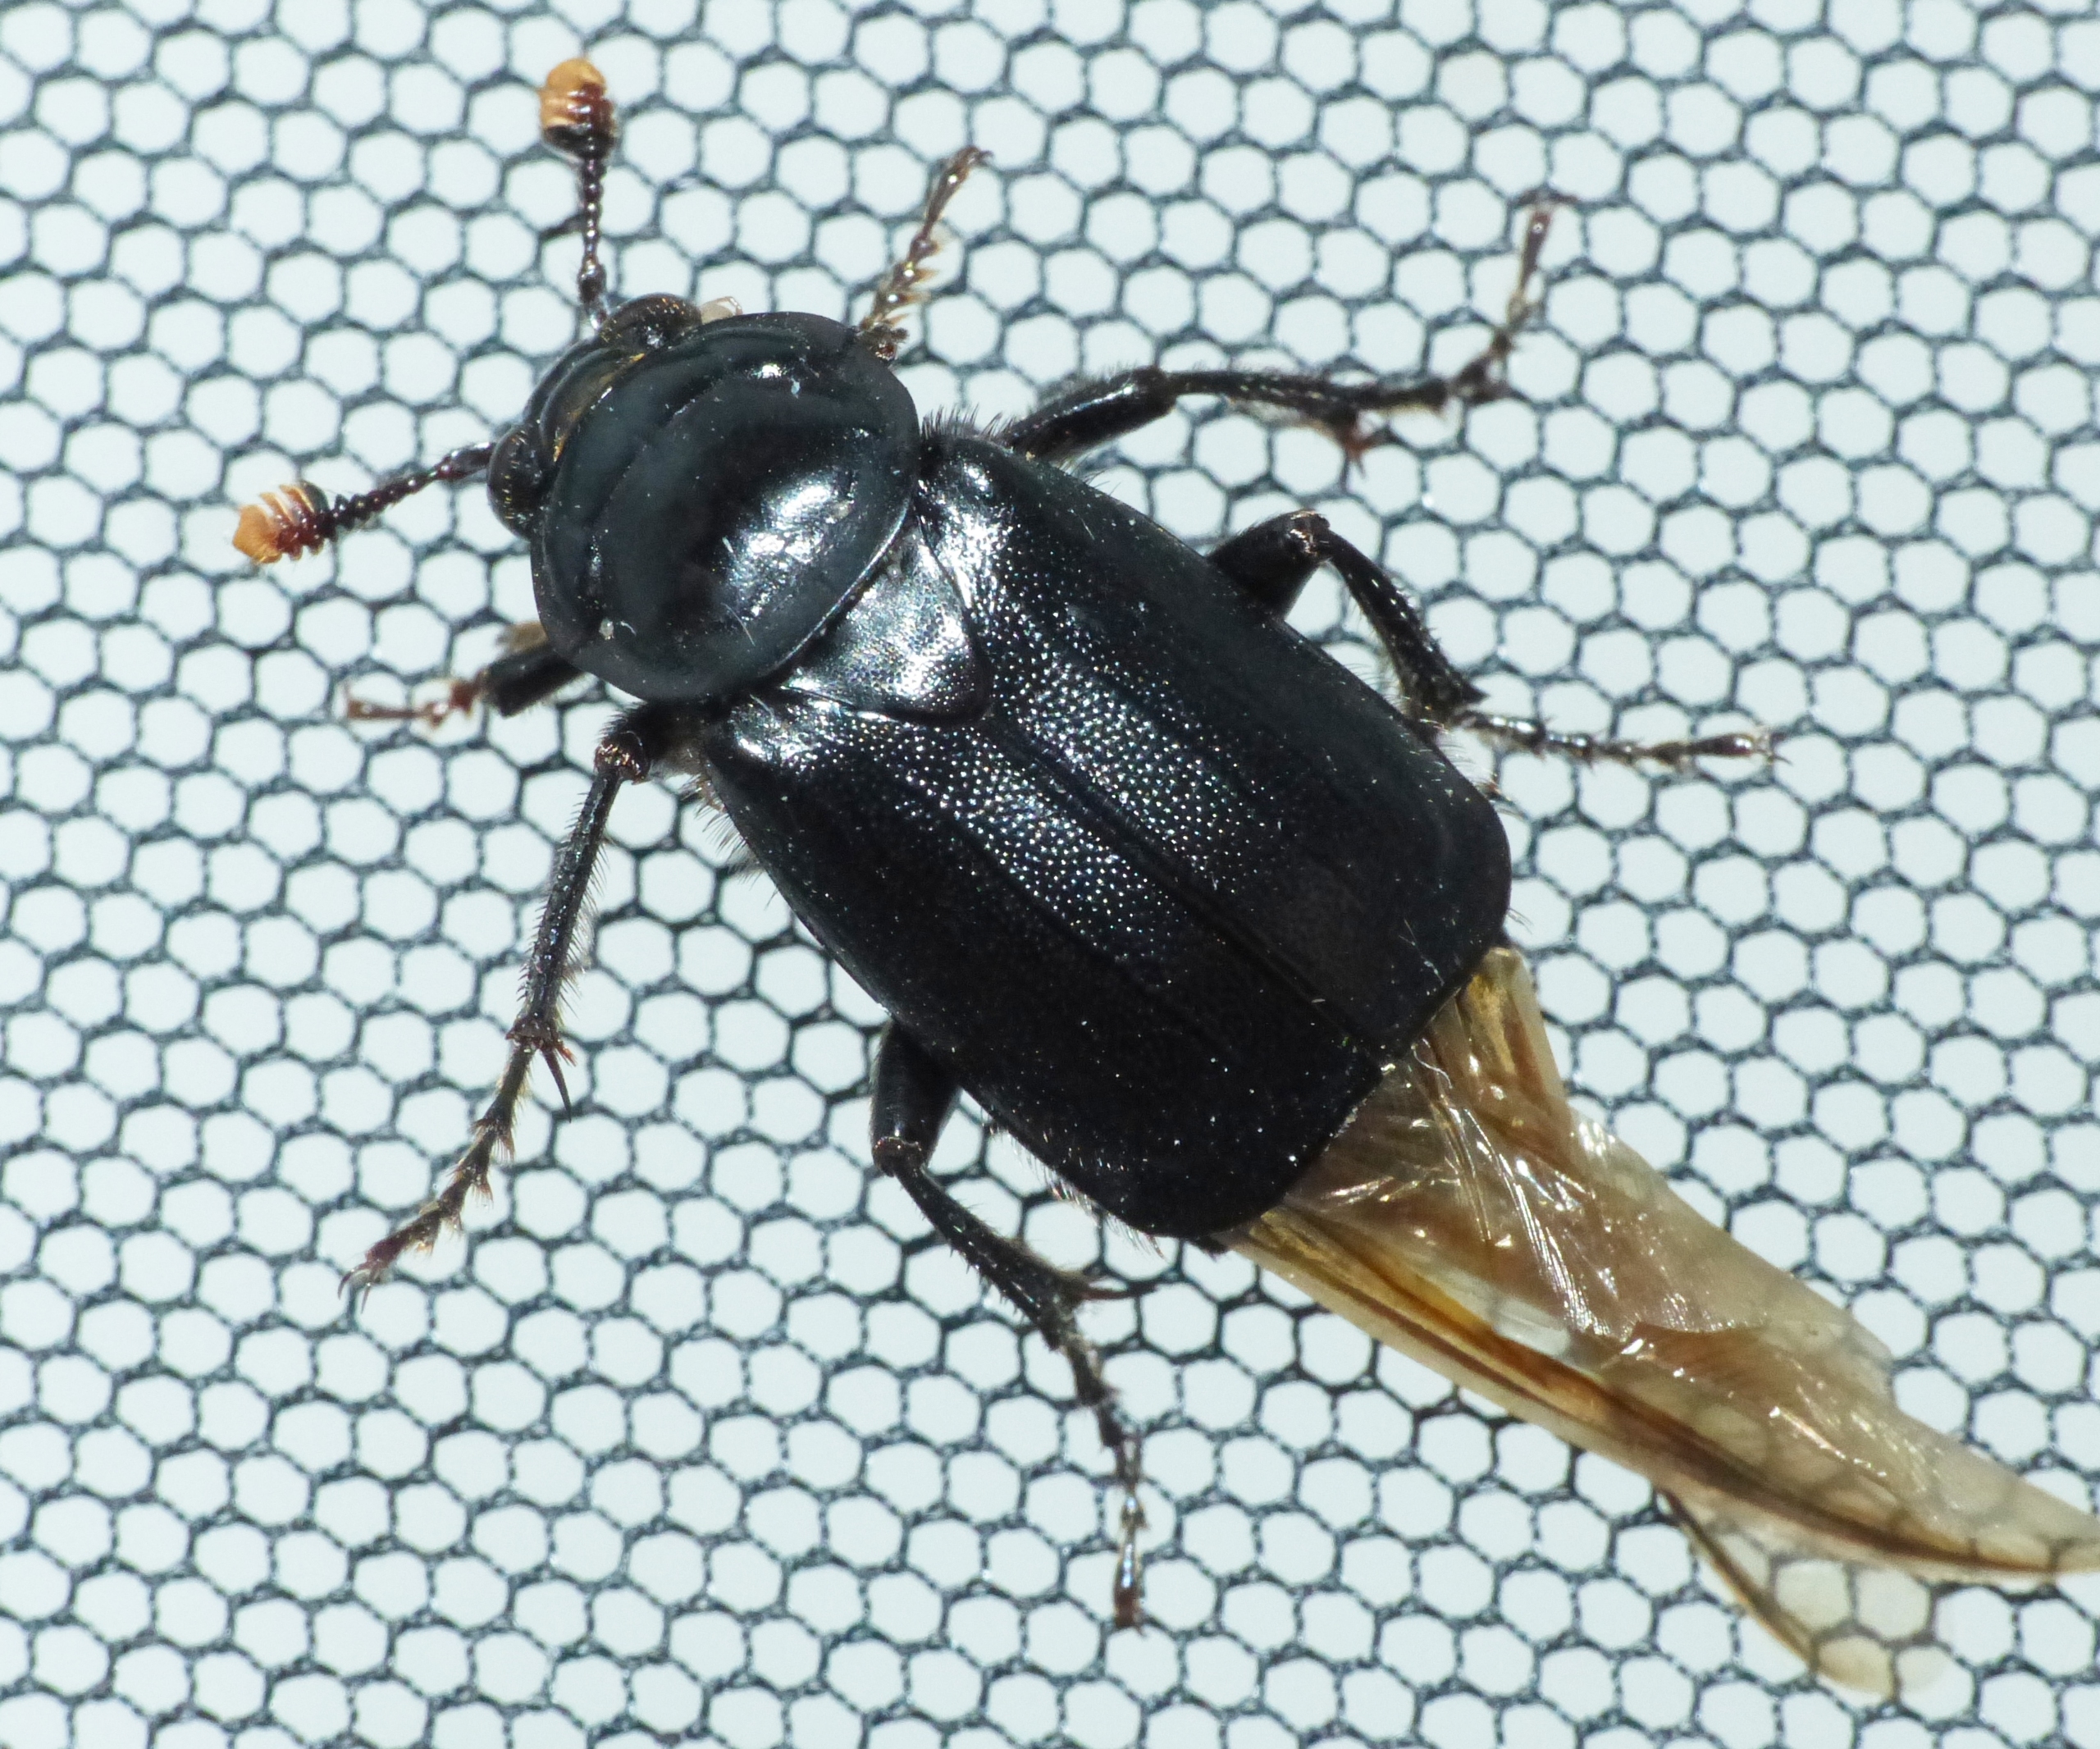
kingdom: Animalia
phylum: Arthropoda
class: Insecta
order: Coleoptera
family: Staphylinidae
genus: Nicrophorus
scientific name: Nicrophorus humator
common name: Sort ådselgraver
